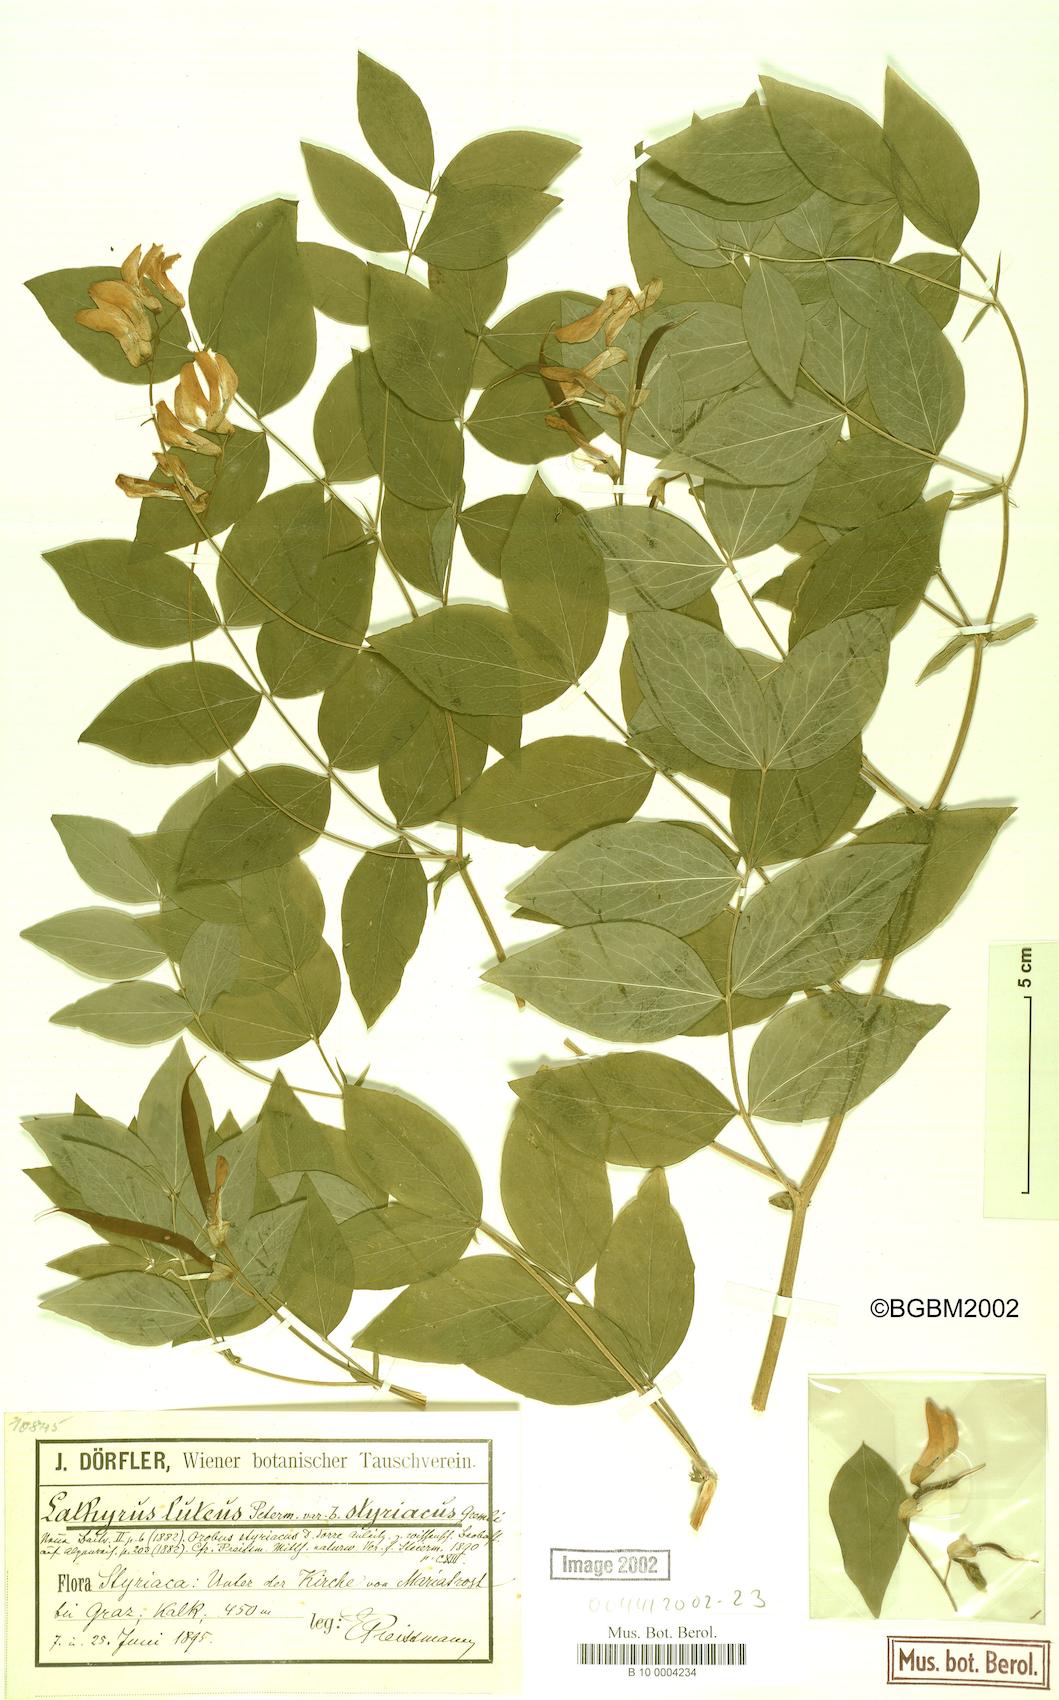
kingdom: Plantae
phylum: Tracheophyta
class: Magnoliopsida
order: Fabales
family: Fabaceae
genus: Lathyrus
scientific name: Lathyrus gmelinii
